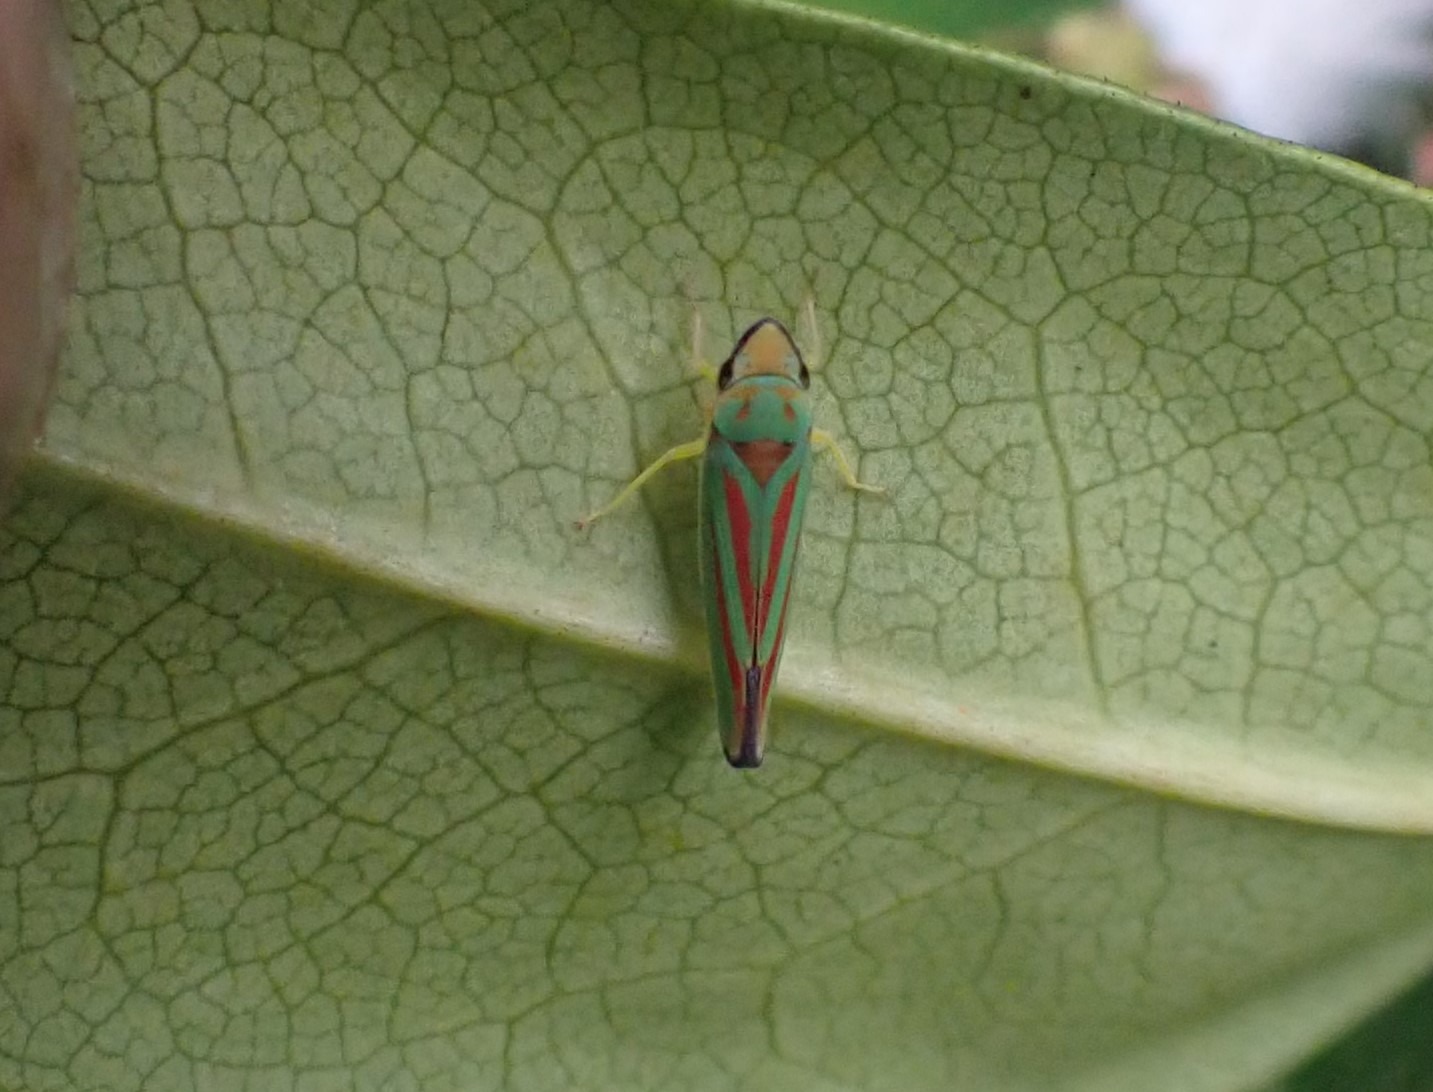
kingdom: Animalia
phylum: Arthropoda
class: Insecta
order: Hemiptera
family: Cicadellidae
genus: Graphocephala
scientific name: Graphocephala fennahi
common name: Rododendroncikade
